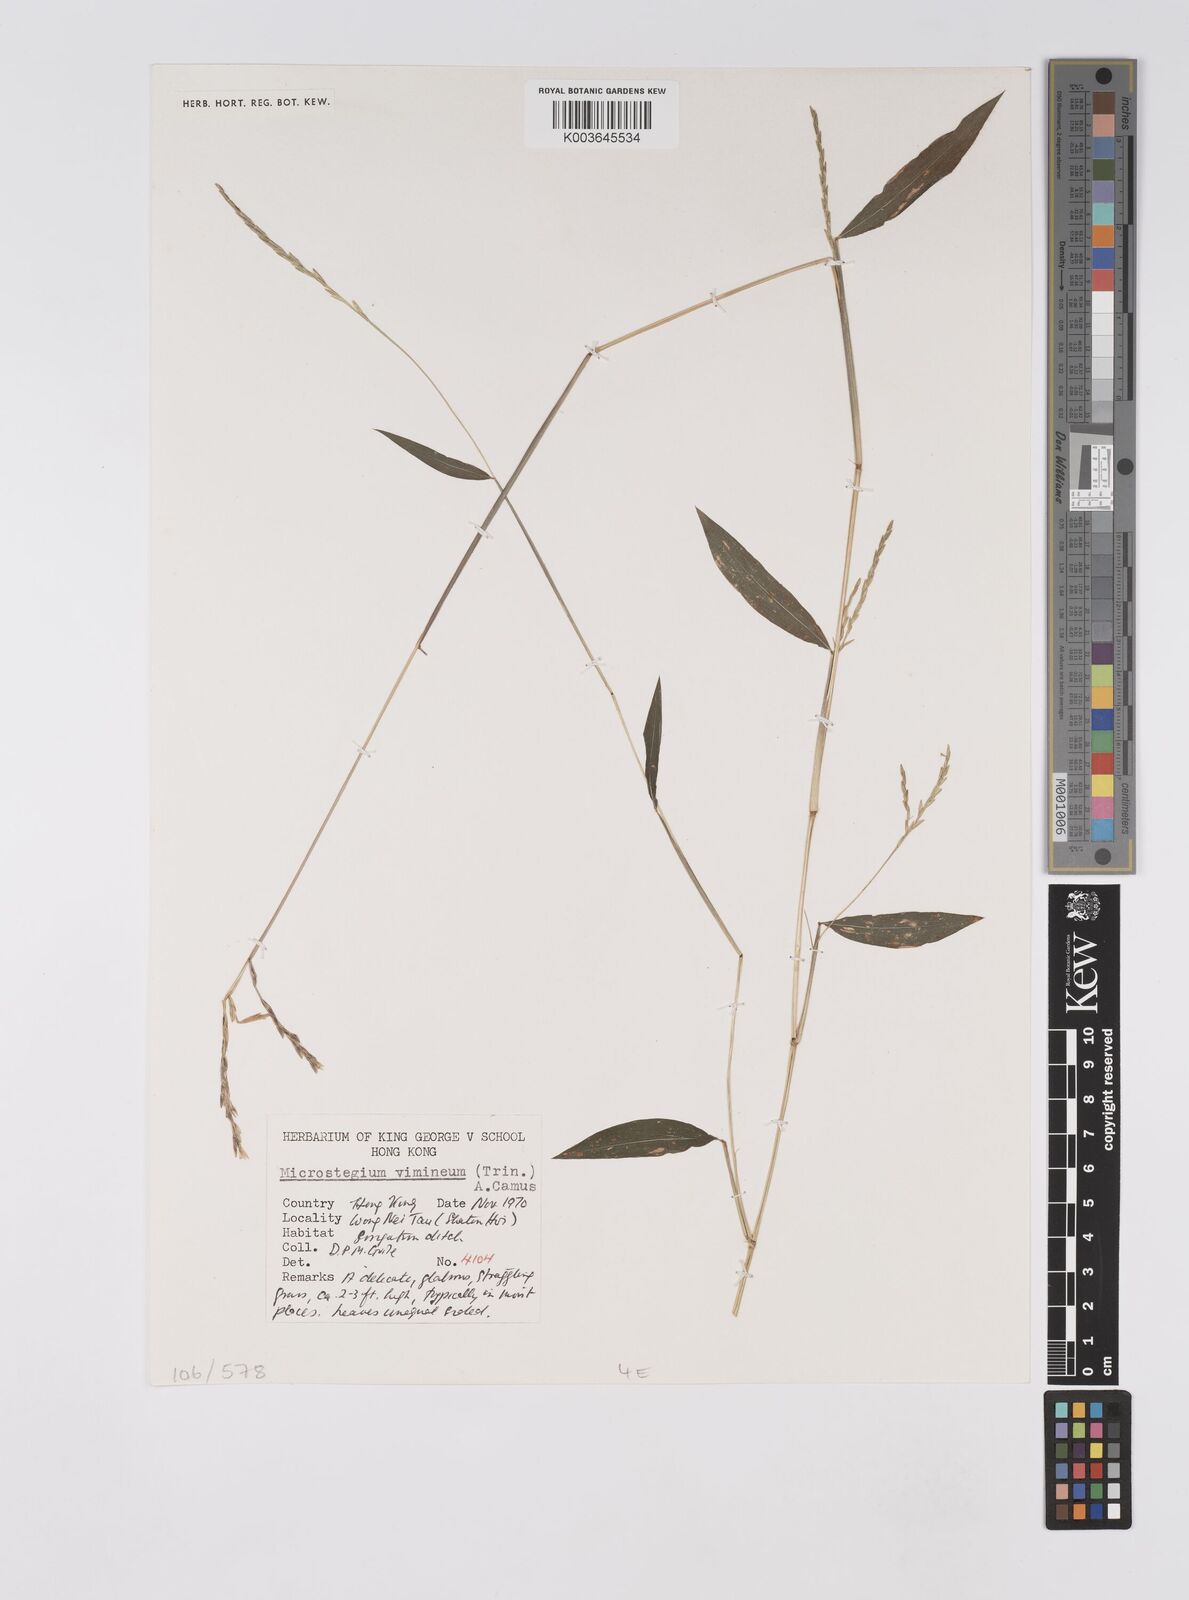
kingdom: Plantae
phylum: Tracheophyta
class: Liliopsida
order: Poales
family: Poaceae
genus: Microstegium
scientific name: Microstegium vimineum
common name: Japanese stiltgrass
